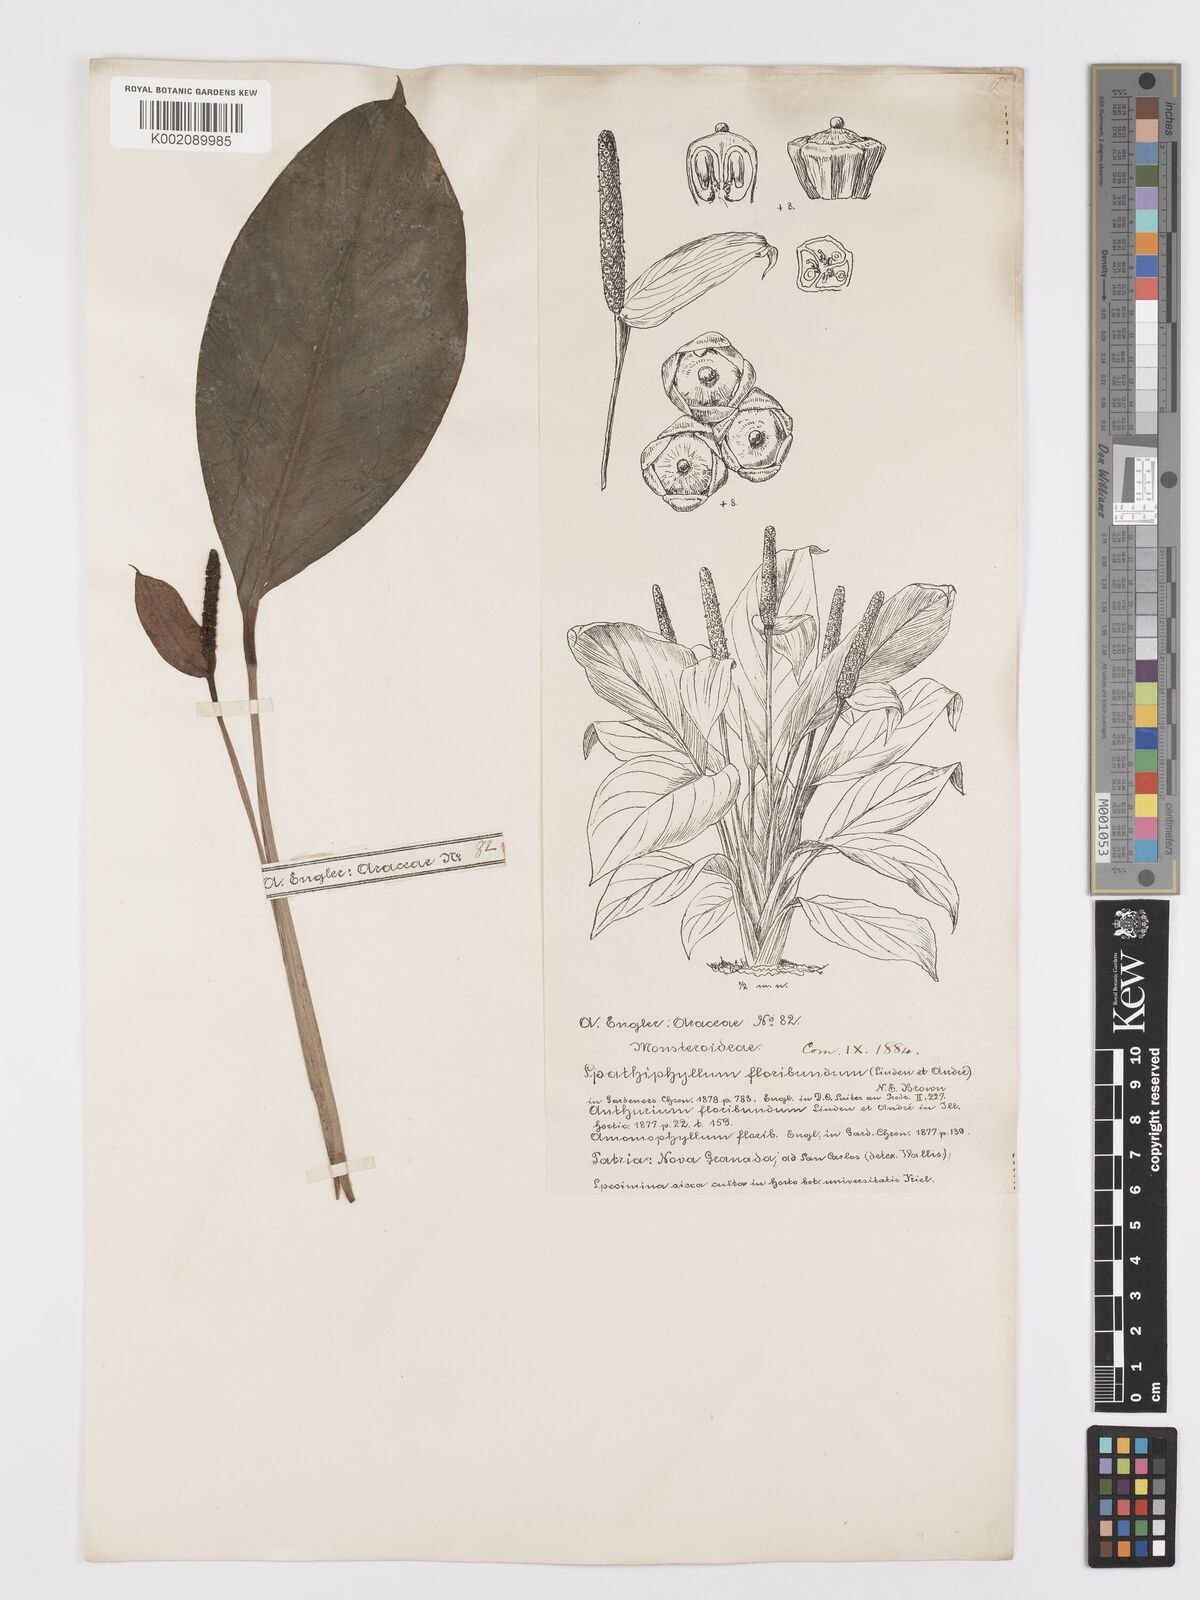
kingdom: Plantae
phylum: Tracheophyta
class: Liliopsida
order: Alismatales
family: Araceae
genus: Spathiphyllum
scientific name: Spathiphyllum floribundum
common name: Peace-lily
